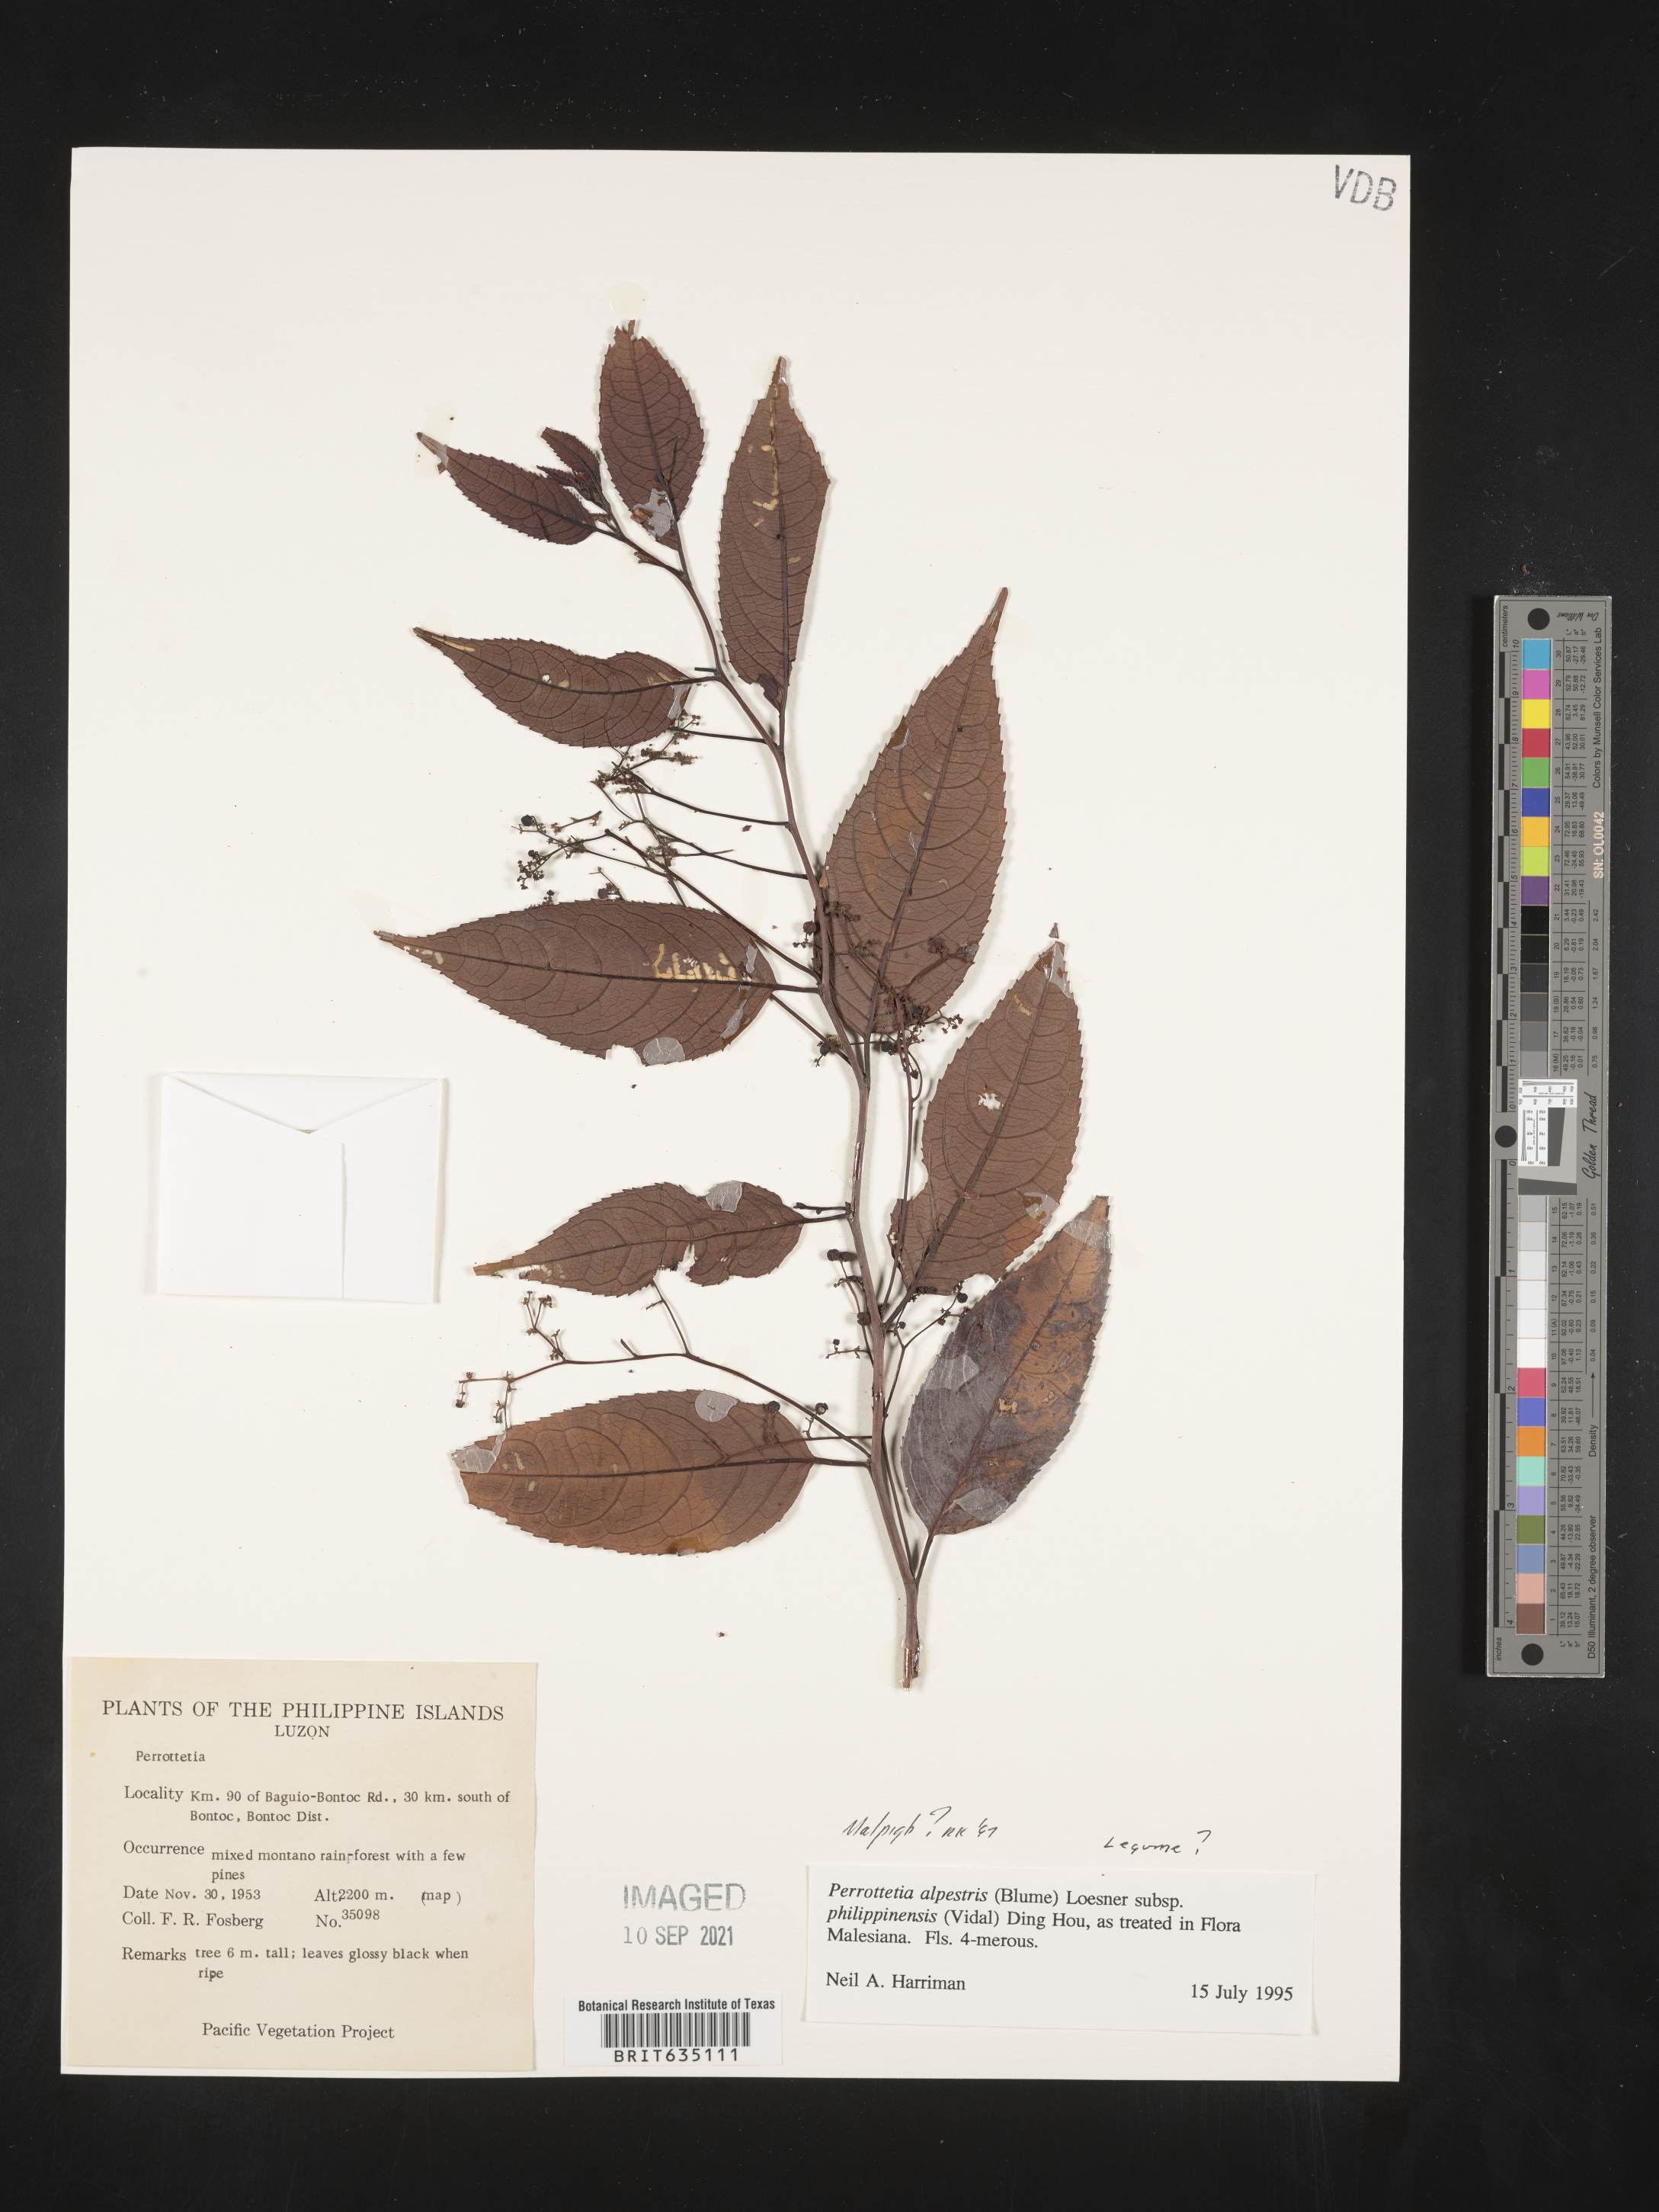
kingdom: Plantae
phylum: Tracheophyta
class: Magnoliopsida
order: Malpighiales
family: Malpighiaceae
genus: Malpighia
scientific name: Malpighia
